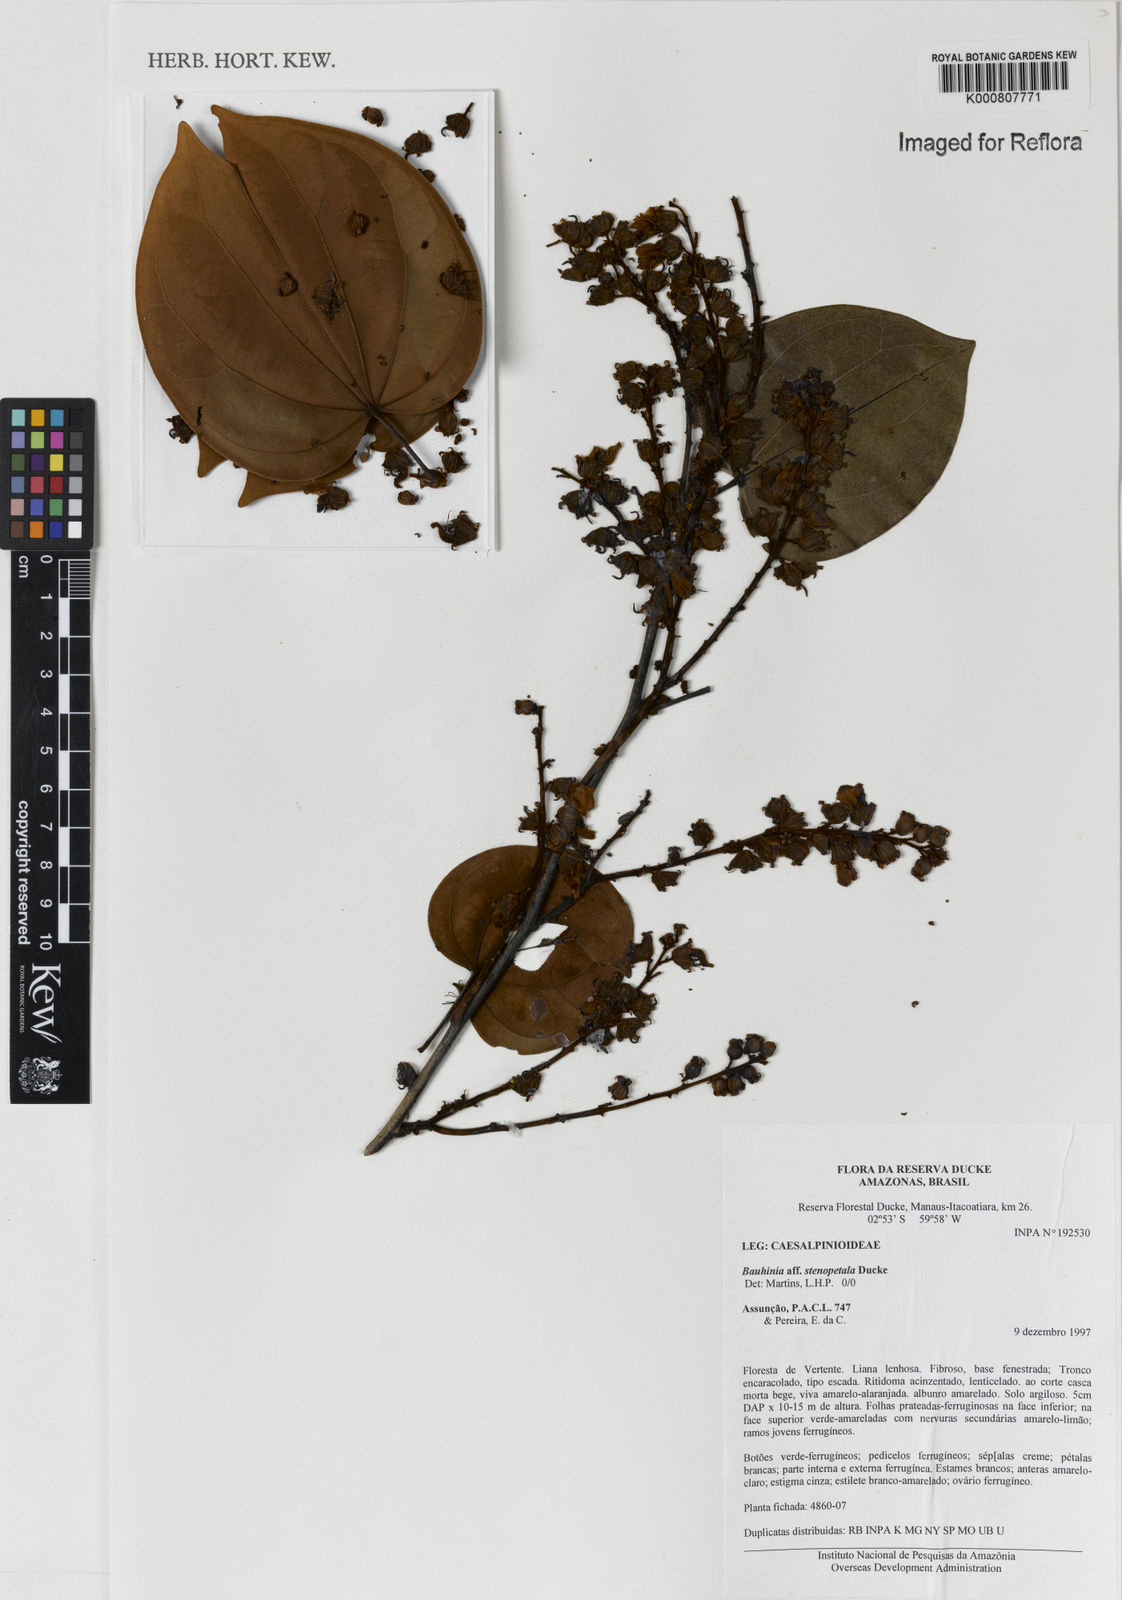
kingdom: Plantae
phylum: Tracheophyta
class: Magnoliopsida
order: Fabales
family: Fabaceae
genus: Schnella
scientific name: Schnella
